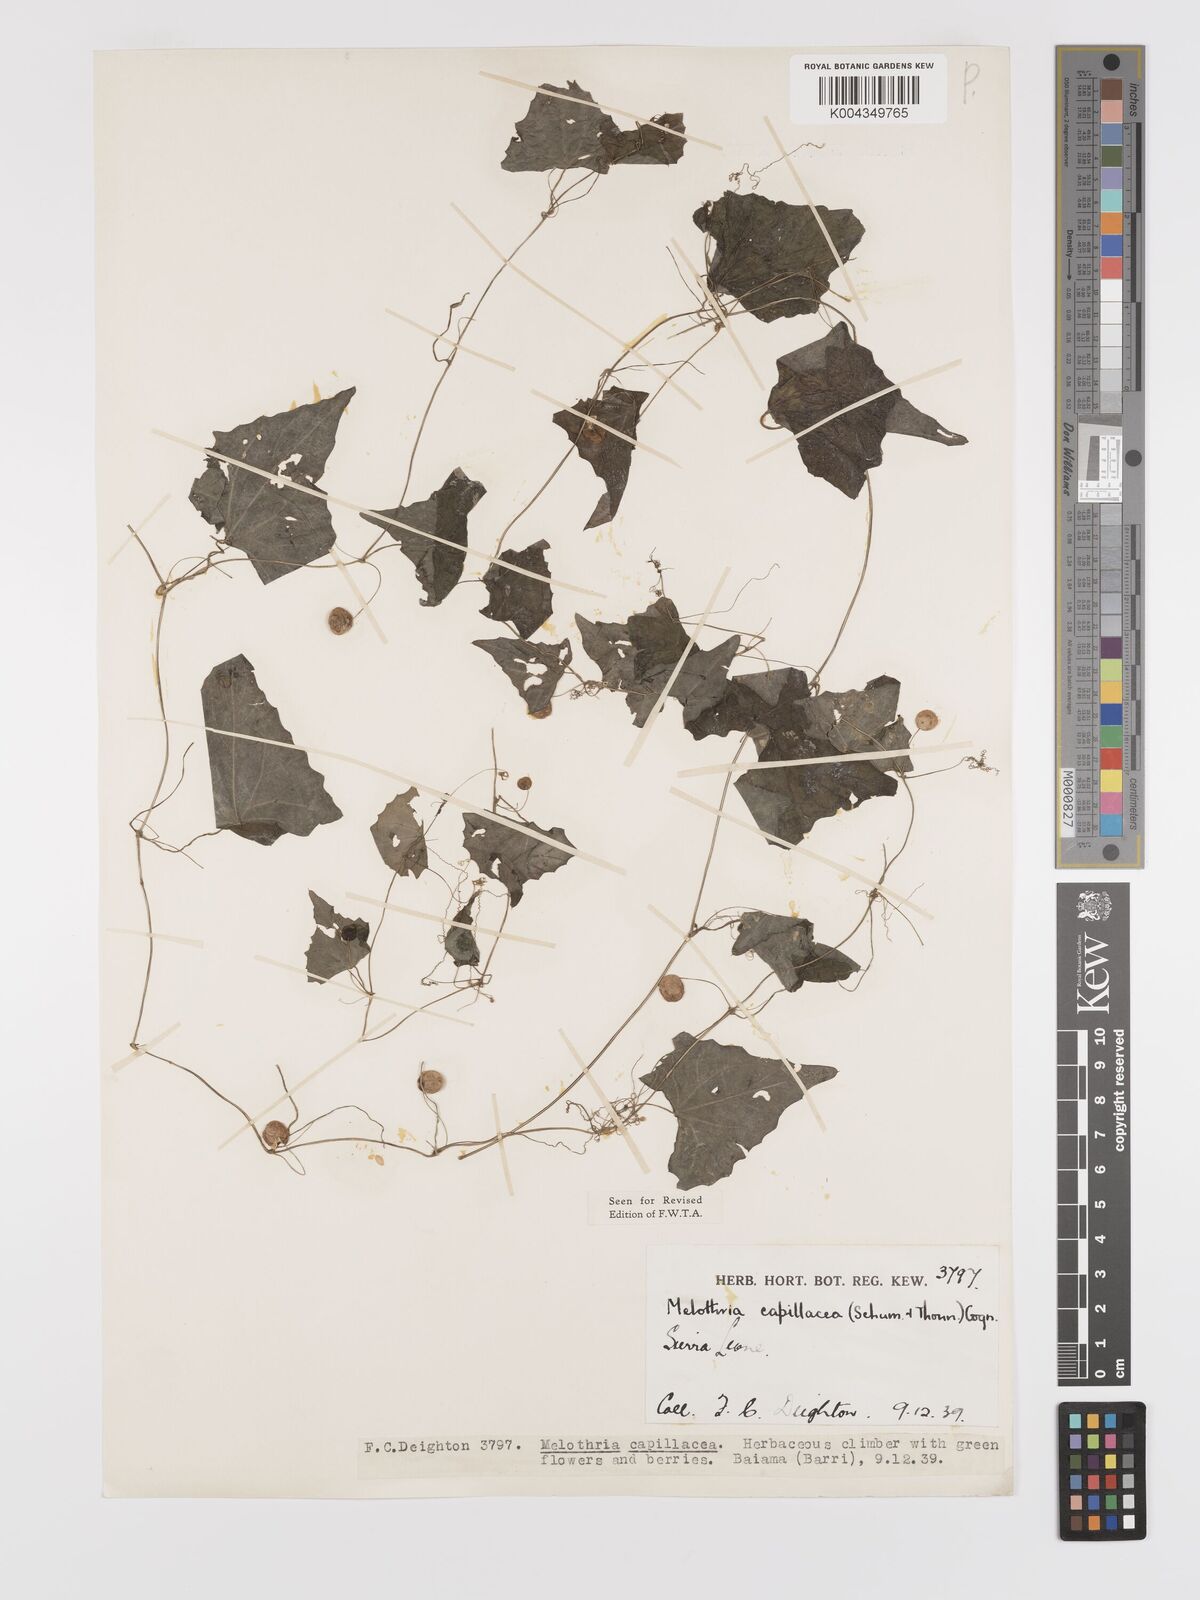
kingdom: Plantae
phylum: Tracheophyta
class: Magnoliopsida
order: Cucurbitales
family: Cucurbitaceae
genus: Zehneria
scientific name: Zehneria capillacea
